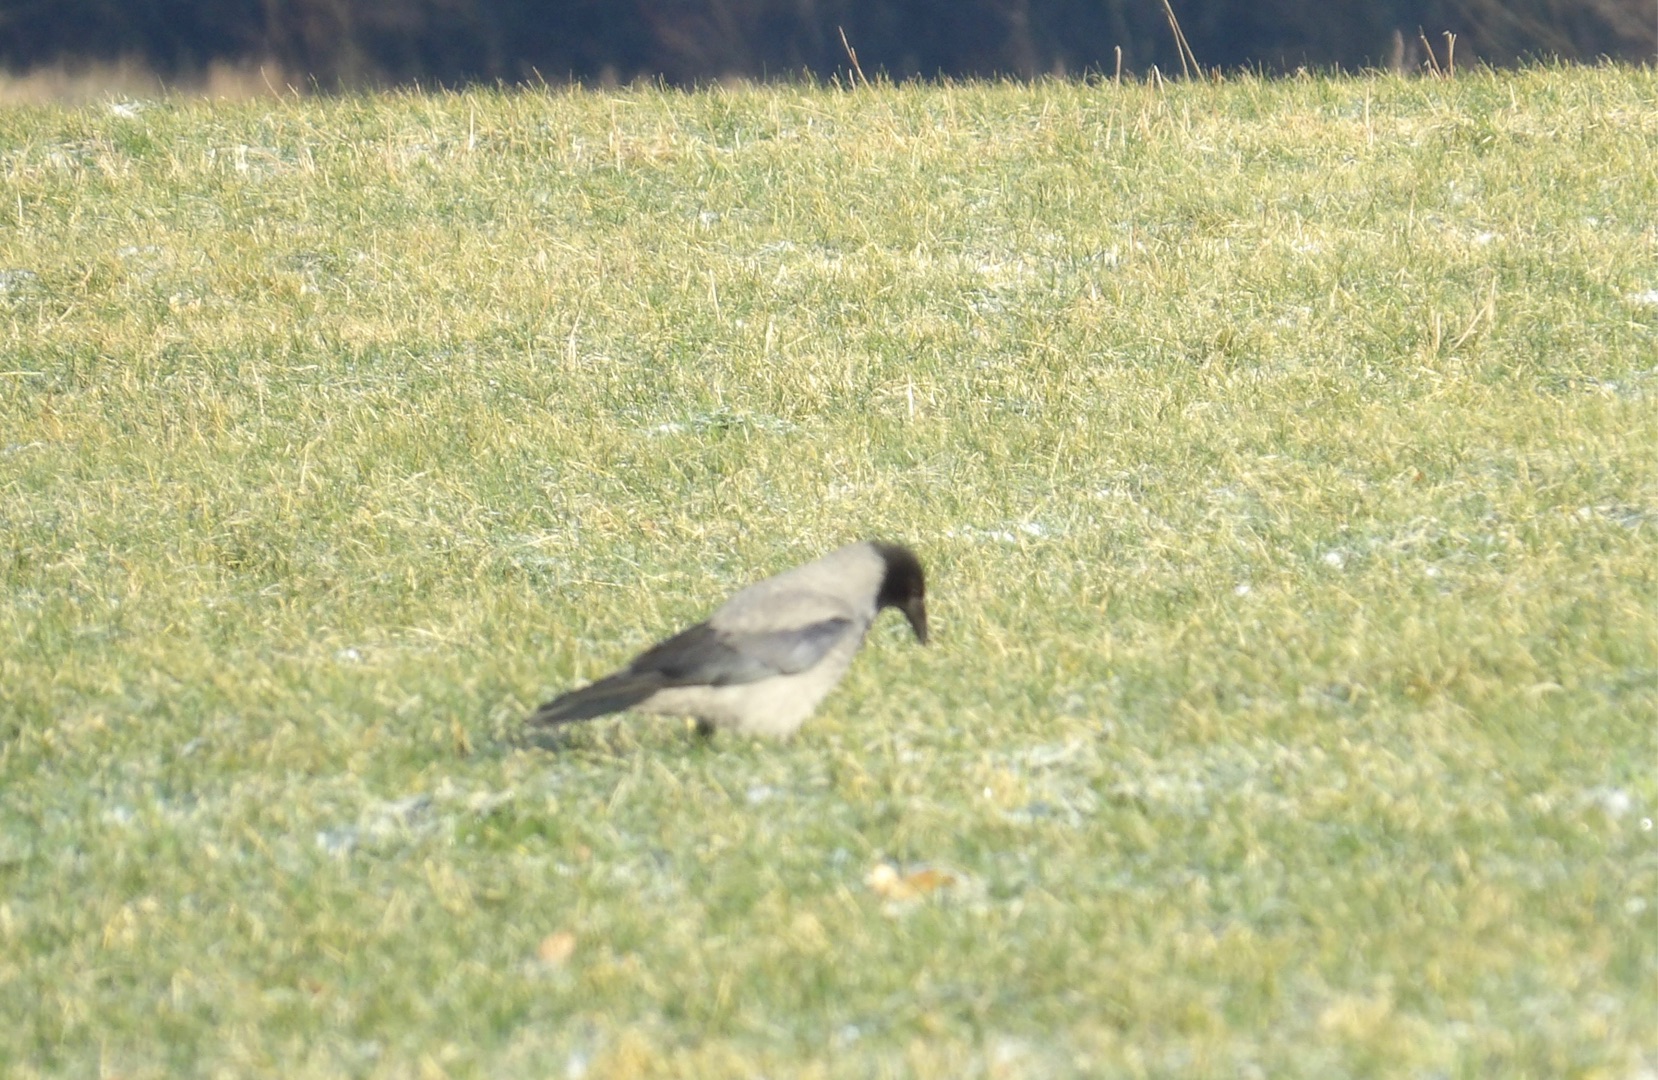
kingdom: Animalia
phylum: Chordata
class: Aves
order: Passeriformes
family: Corvidae
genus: Corvus
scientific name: Corvus cornix
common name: Gråkrage
